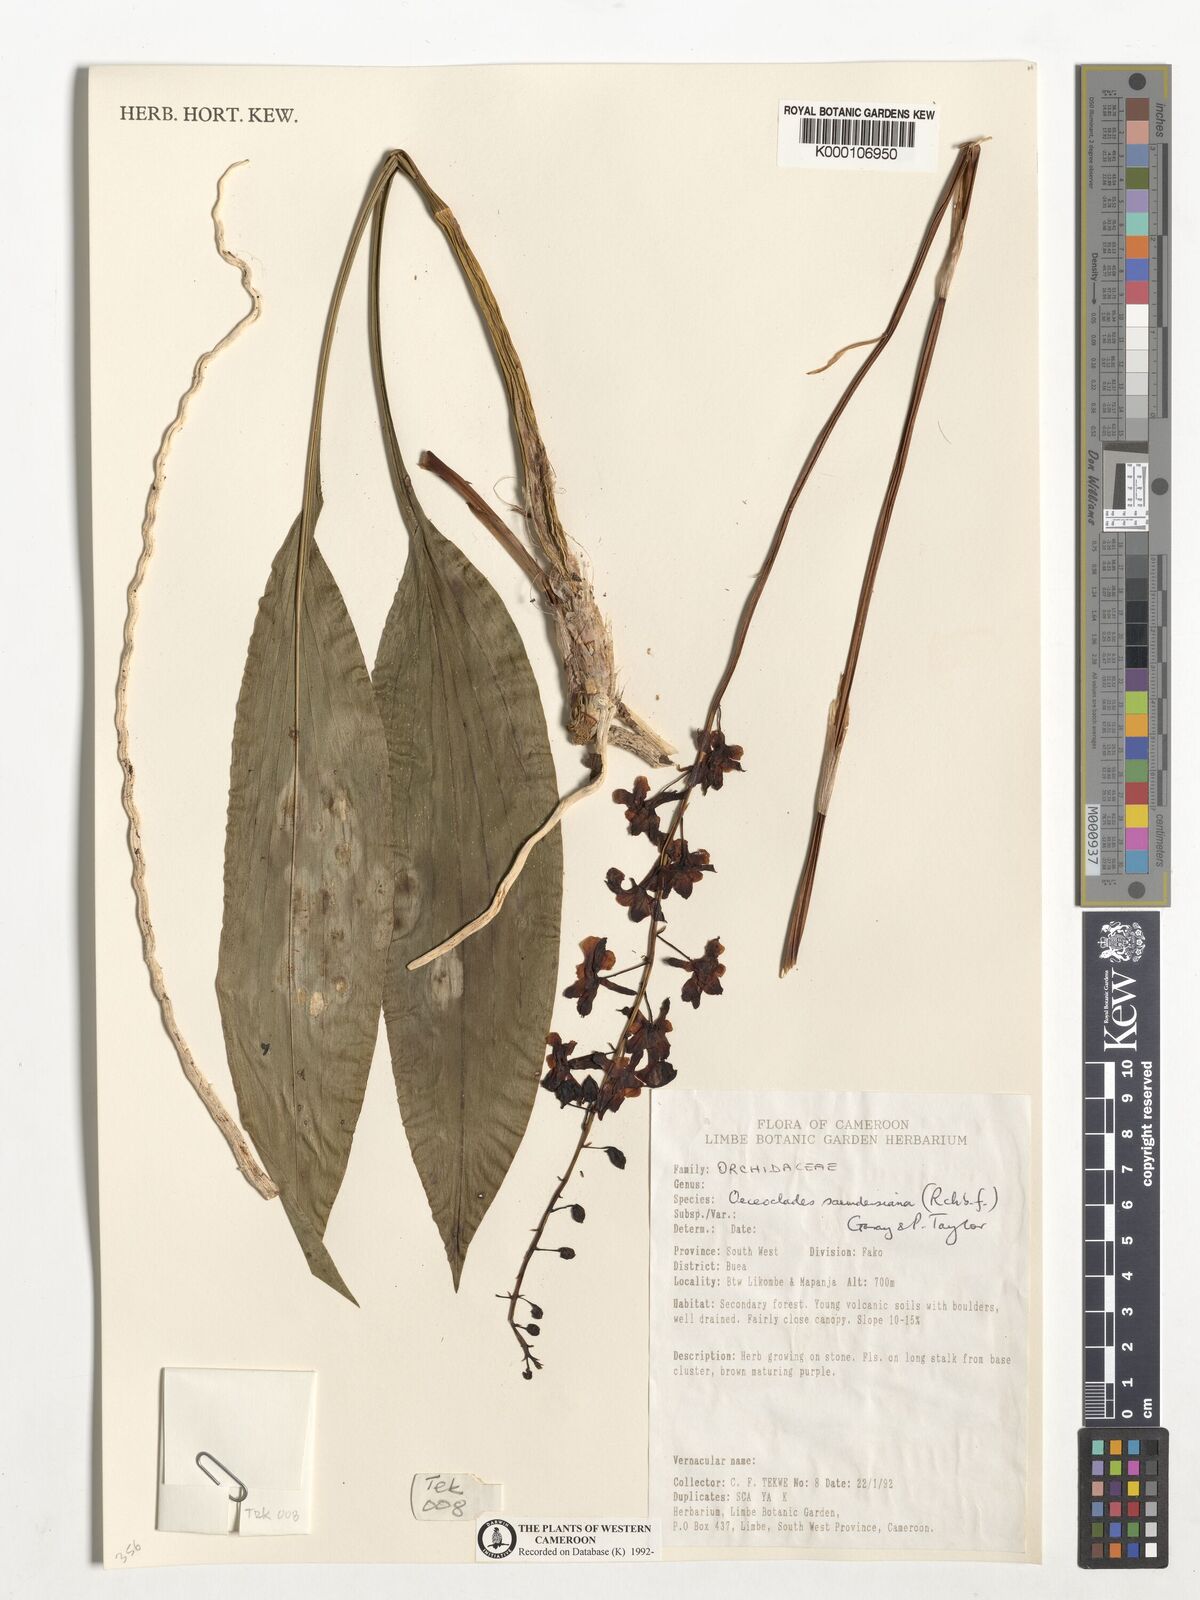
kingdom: Plantae
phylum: Tracheophyta
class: Liliopsida
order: Asparagales
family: Orchidaceae
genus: Eulophia
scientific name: Eulophia saundersiana
